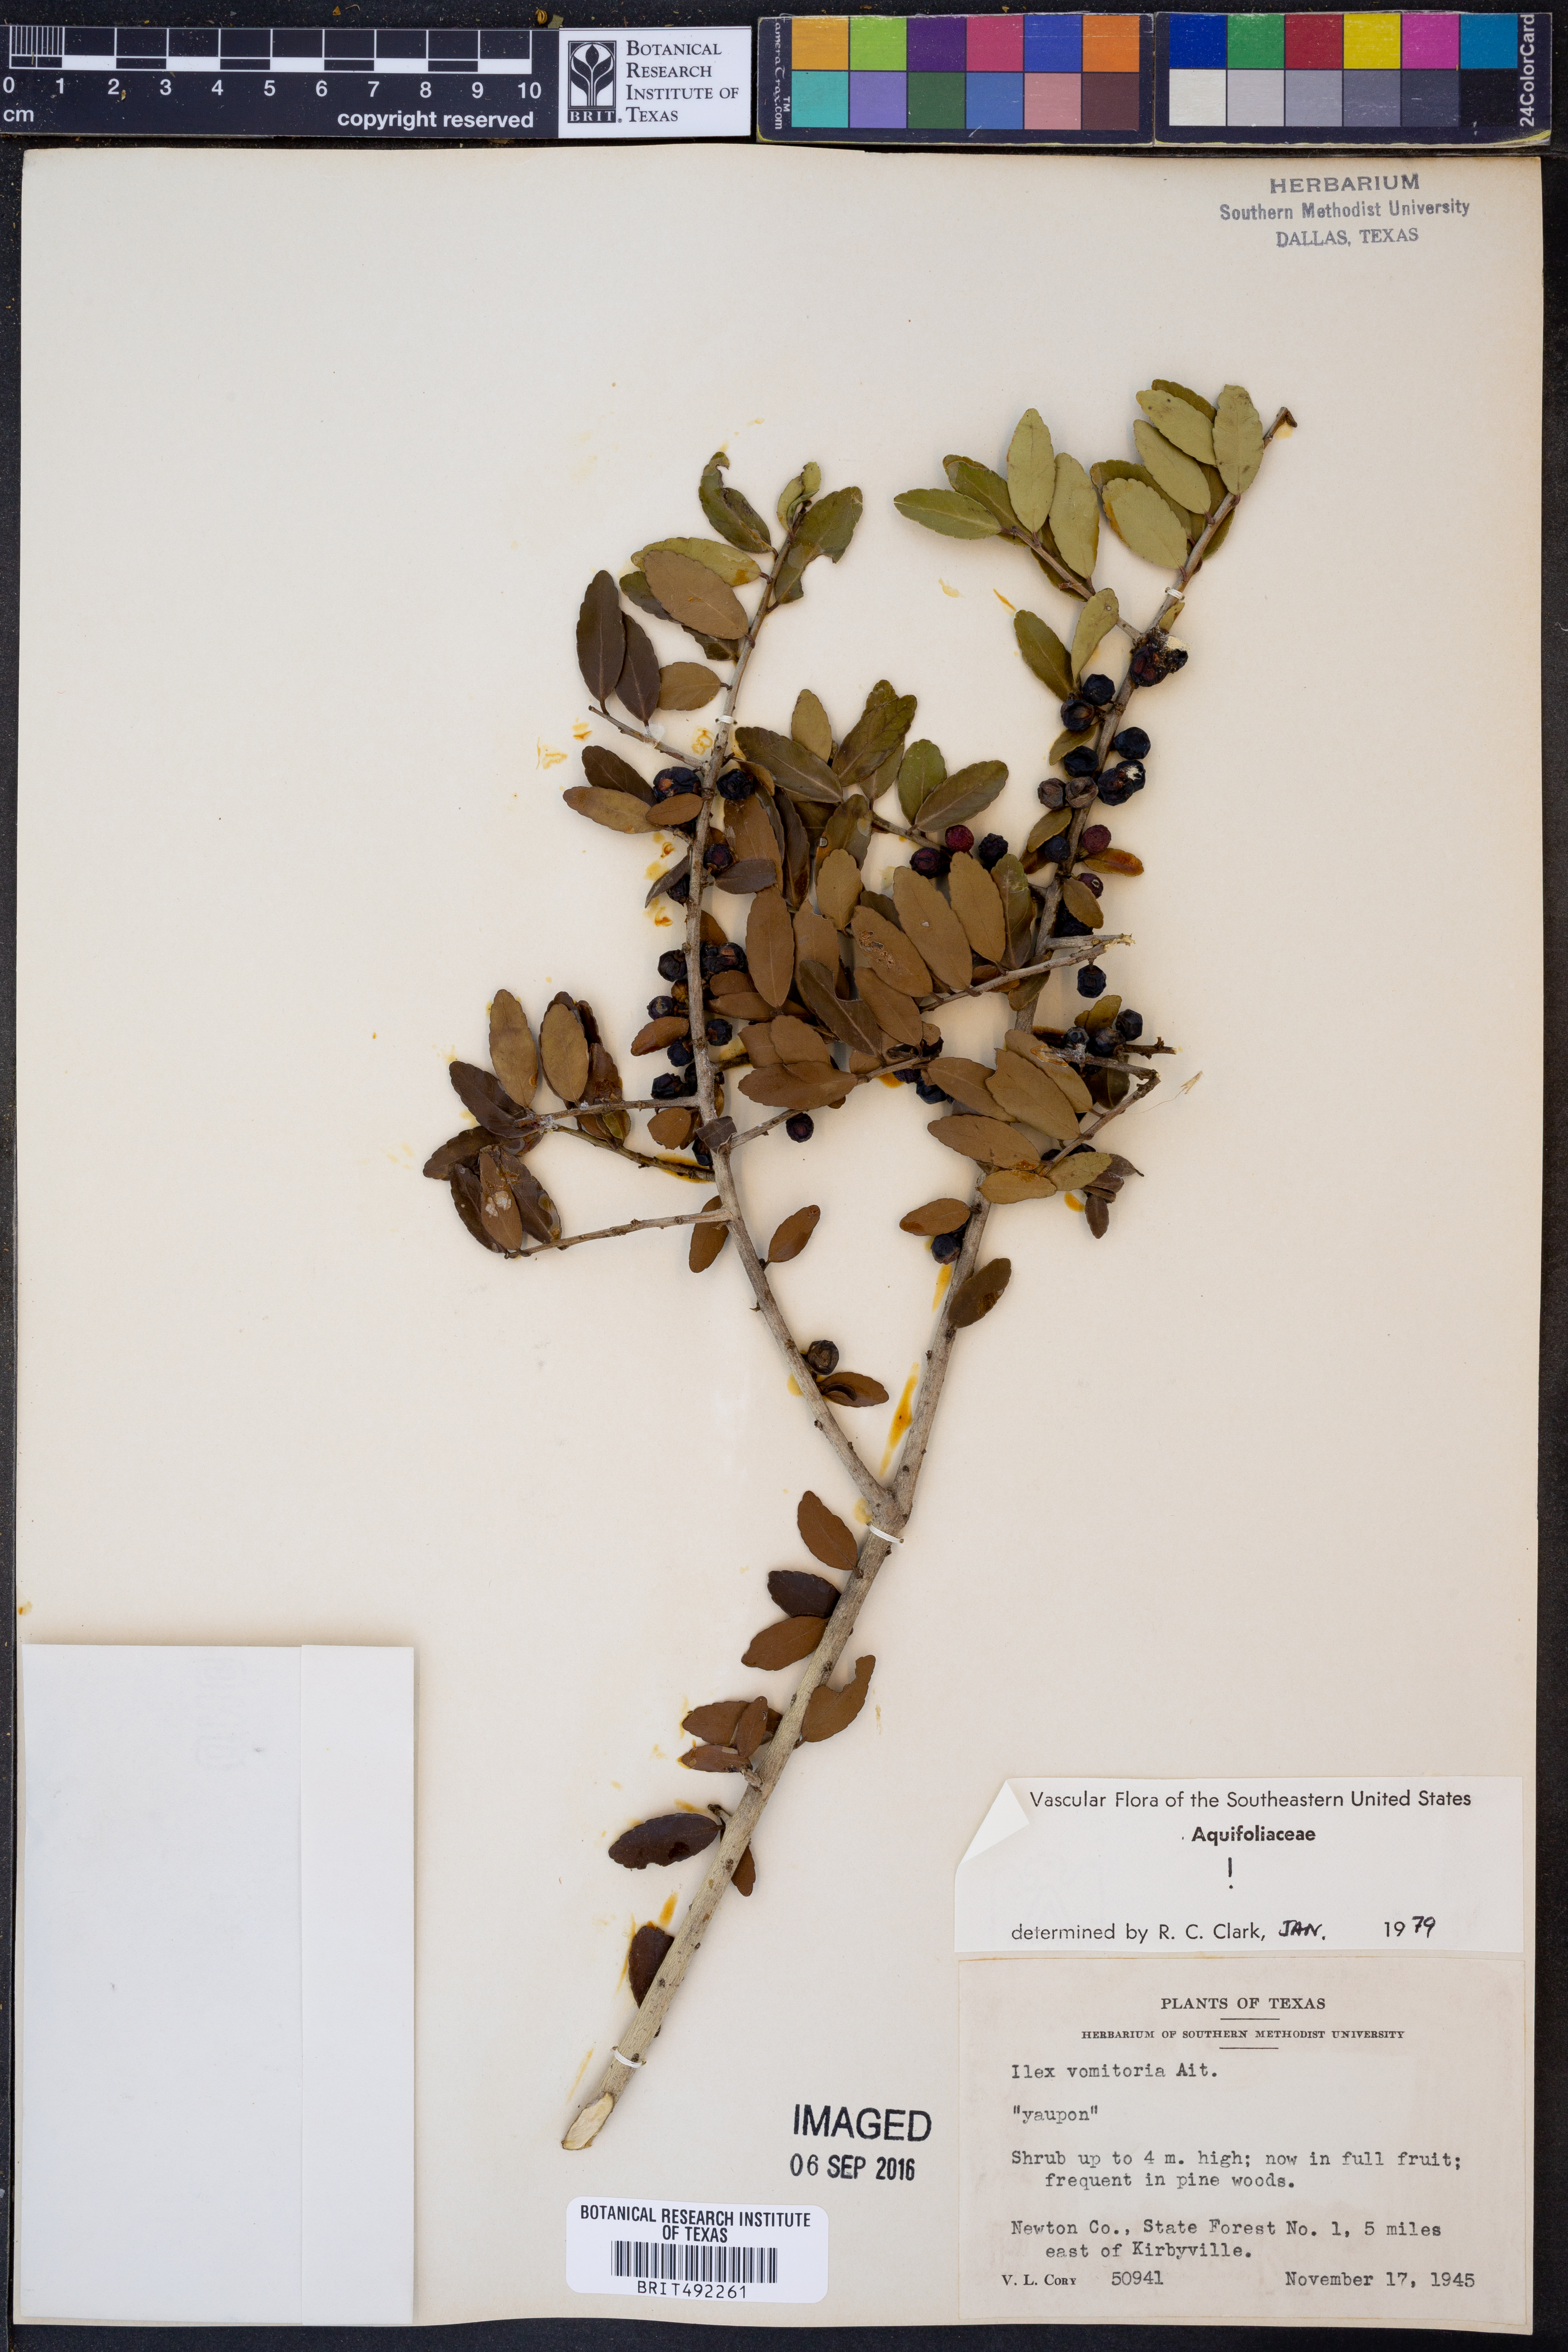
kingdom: Plantae
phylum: Tracheophyta
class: Magnoliopsida
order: Aquifoliales
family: Aquifoliaceae
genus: Ilex
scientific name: Ilex vomitoria
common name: Yaupon holly
